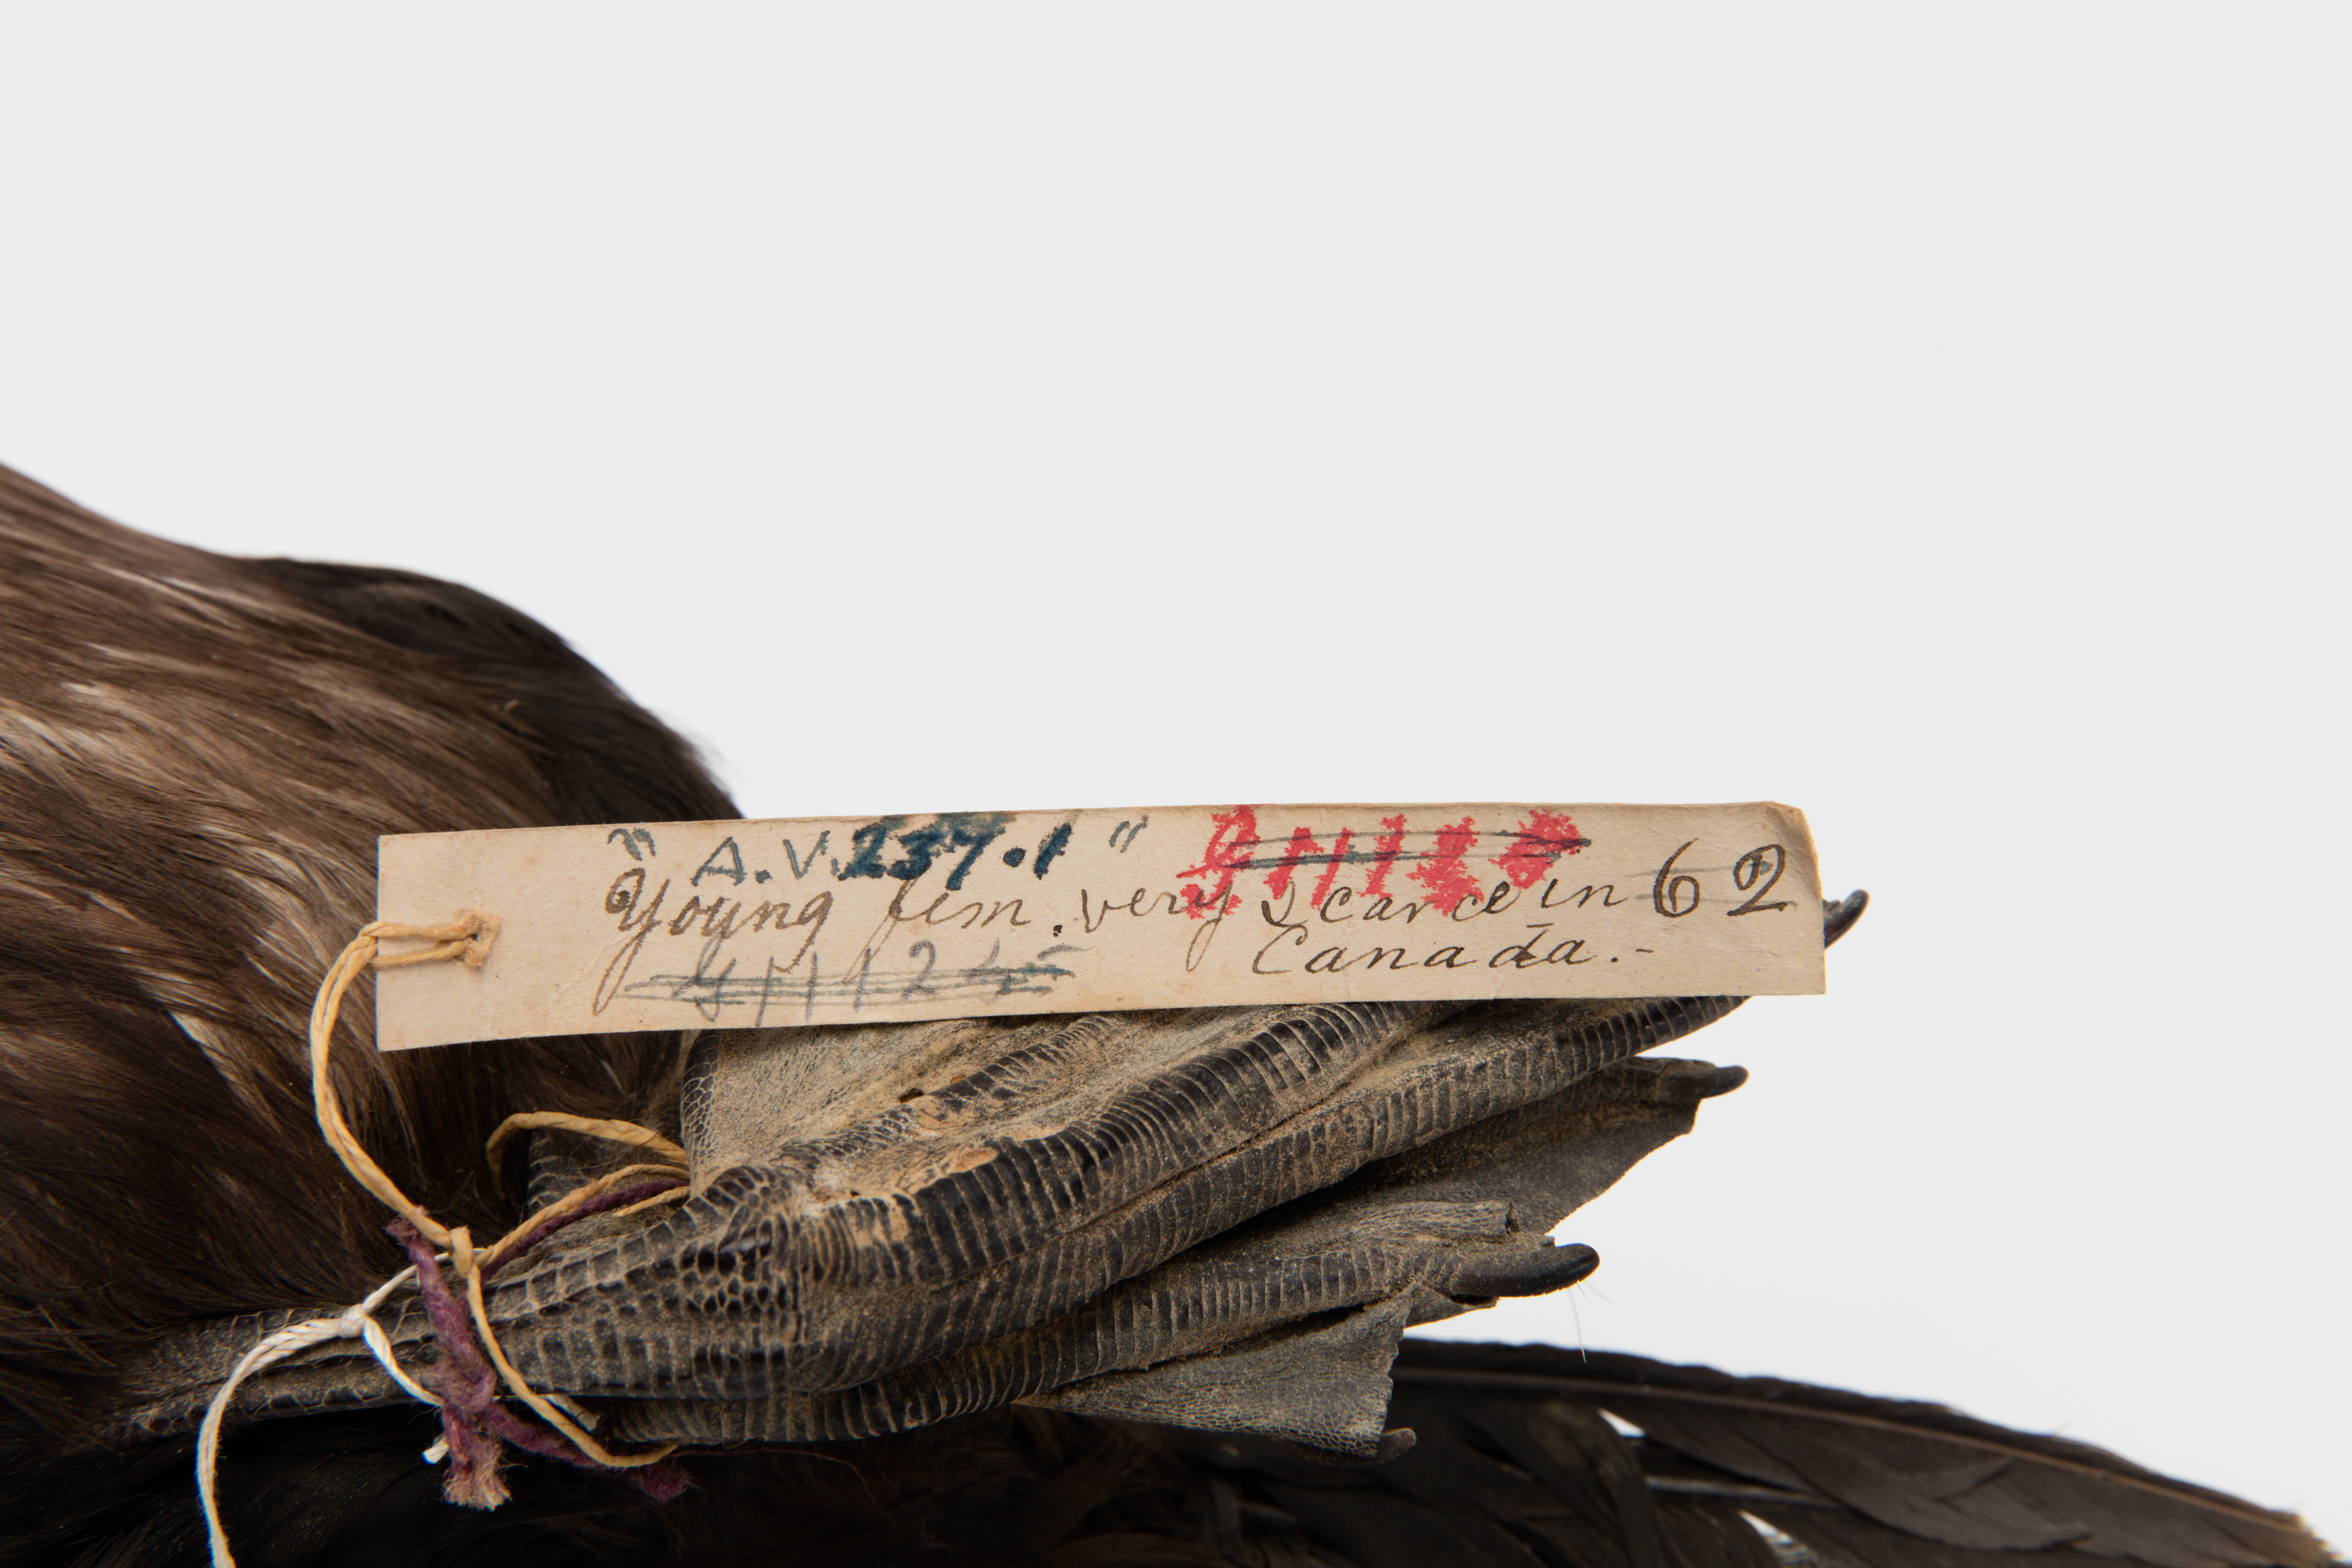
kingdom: Animalia
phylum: Chordata
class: Aves
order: Suliformes
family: Phalacrocoracidae
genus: Phalacrocorax
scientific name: Phalacrocorax auritus
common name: Double-crested cormorant
